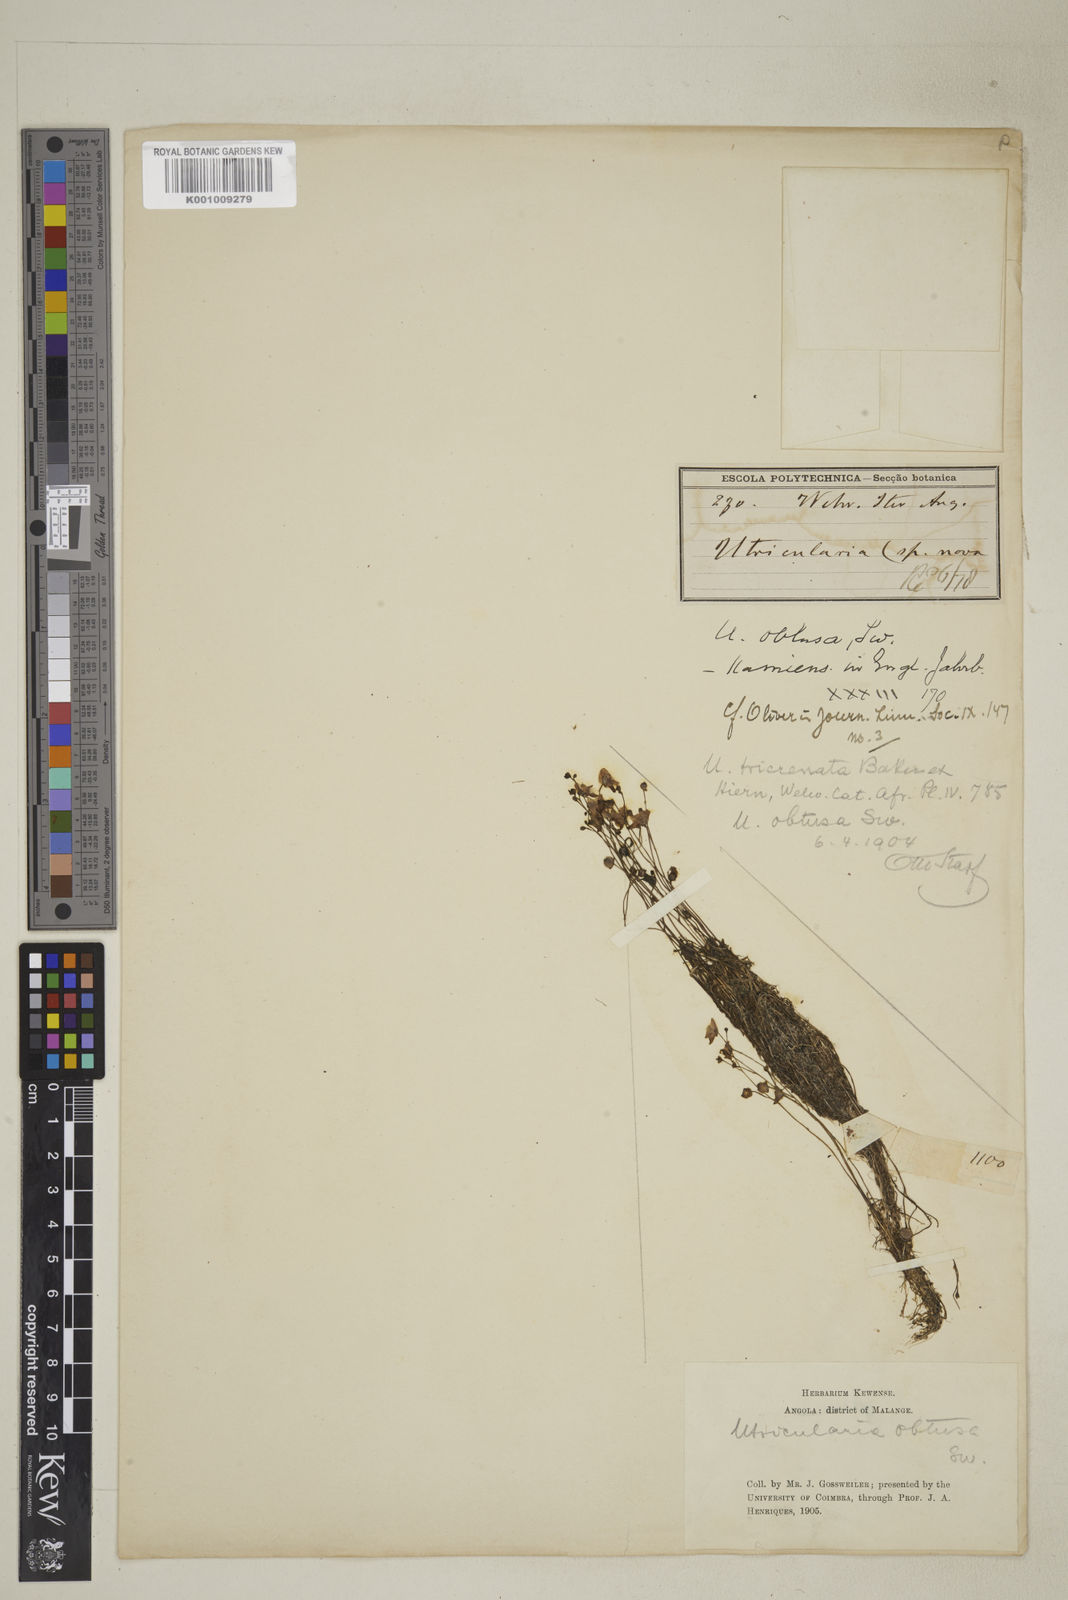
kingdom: Plantae
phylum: Tracheophyta
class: Magnoliopsida
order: Lamiales
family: Lentibulariaceae
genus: Utricularia
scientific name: Utricularia gibba
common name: Humped bladderwort
